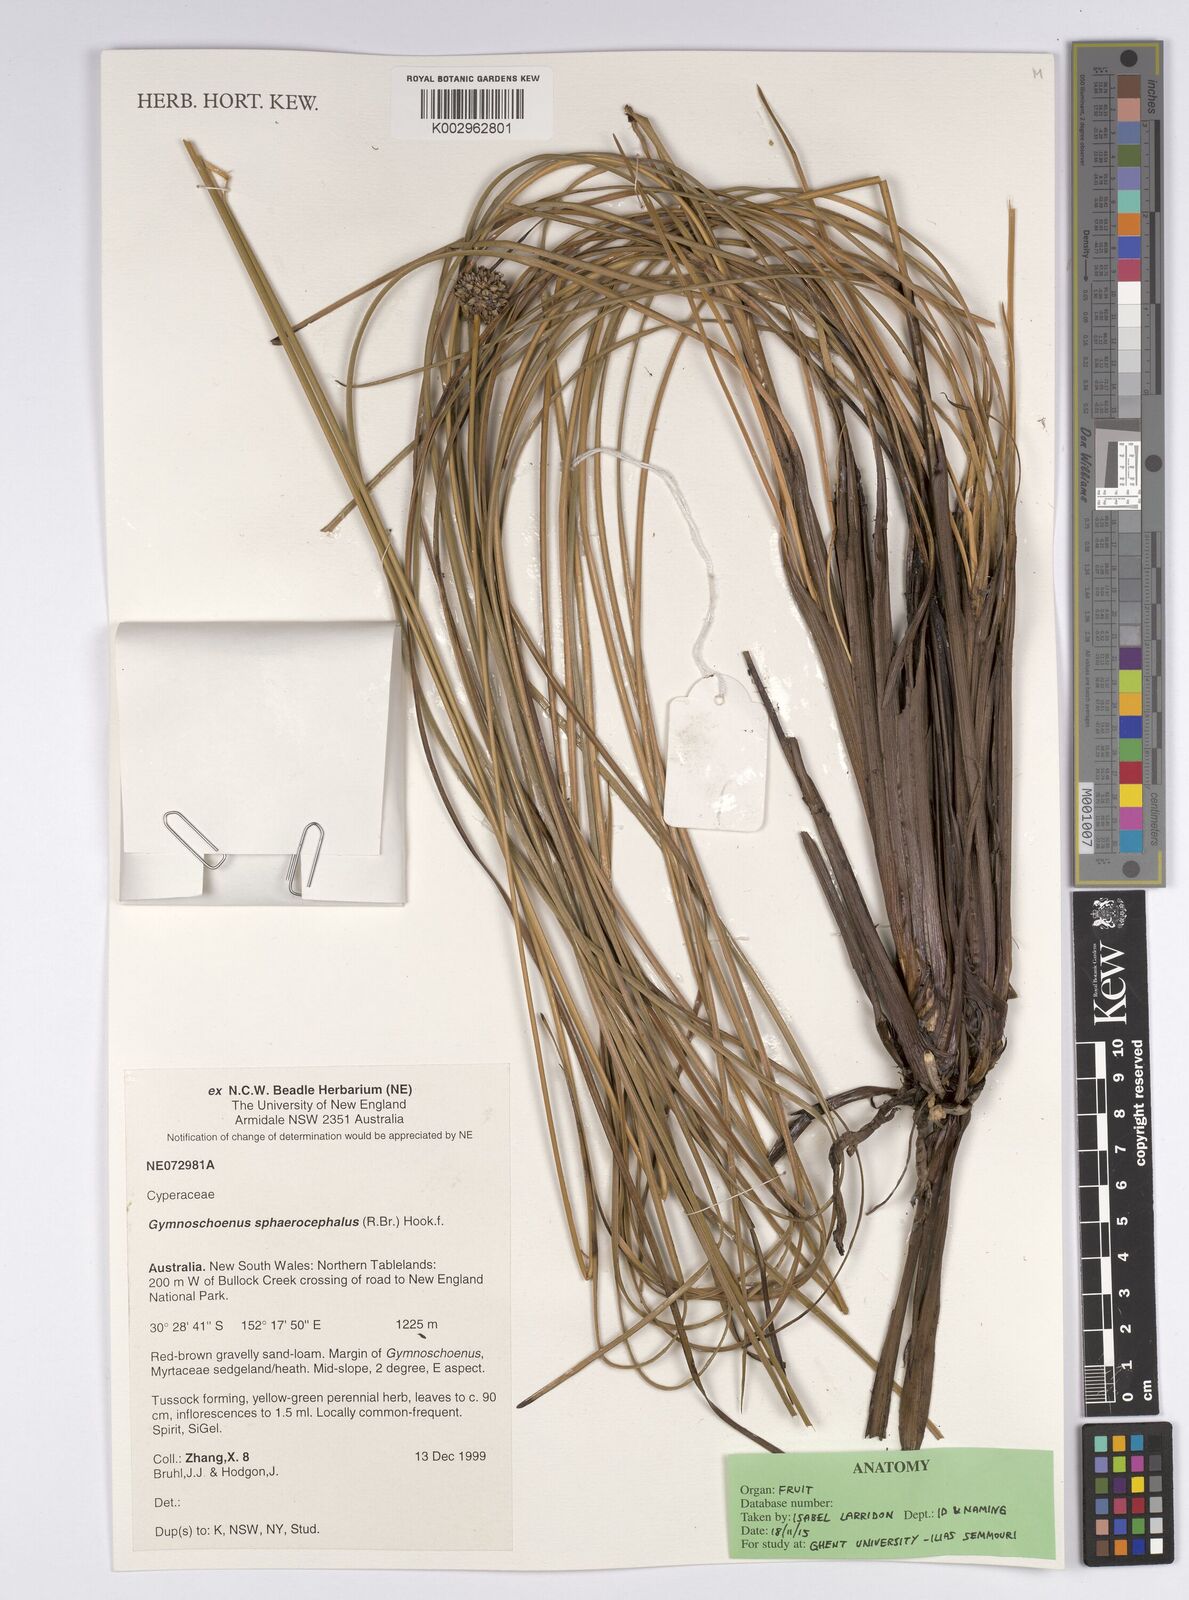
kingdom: Plantae
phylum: Tracheophyta
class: Liliopsida
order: Poales
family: Cyperaceae
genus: Gymnoschoenus
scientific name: Gymnoschoenus sphaerocephalus
